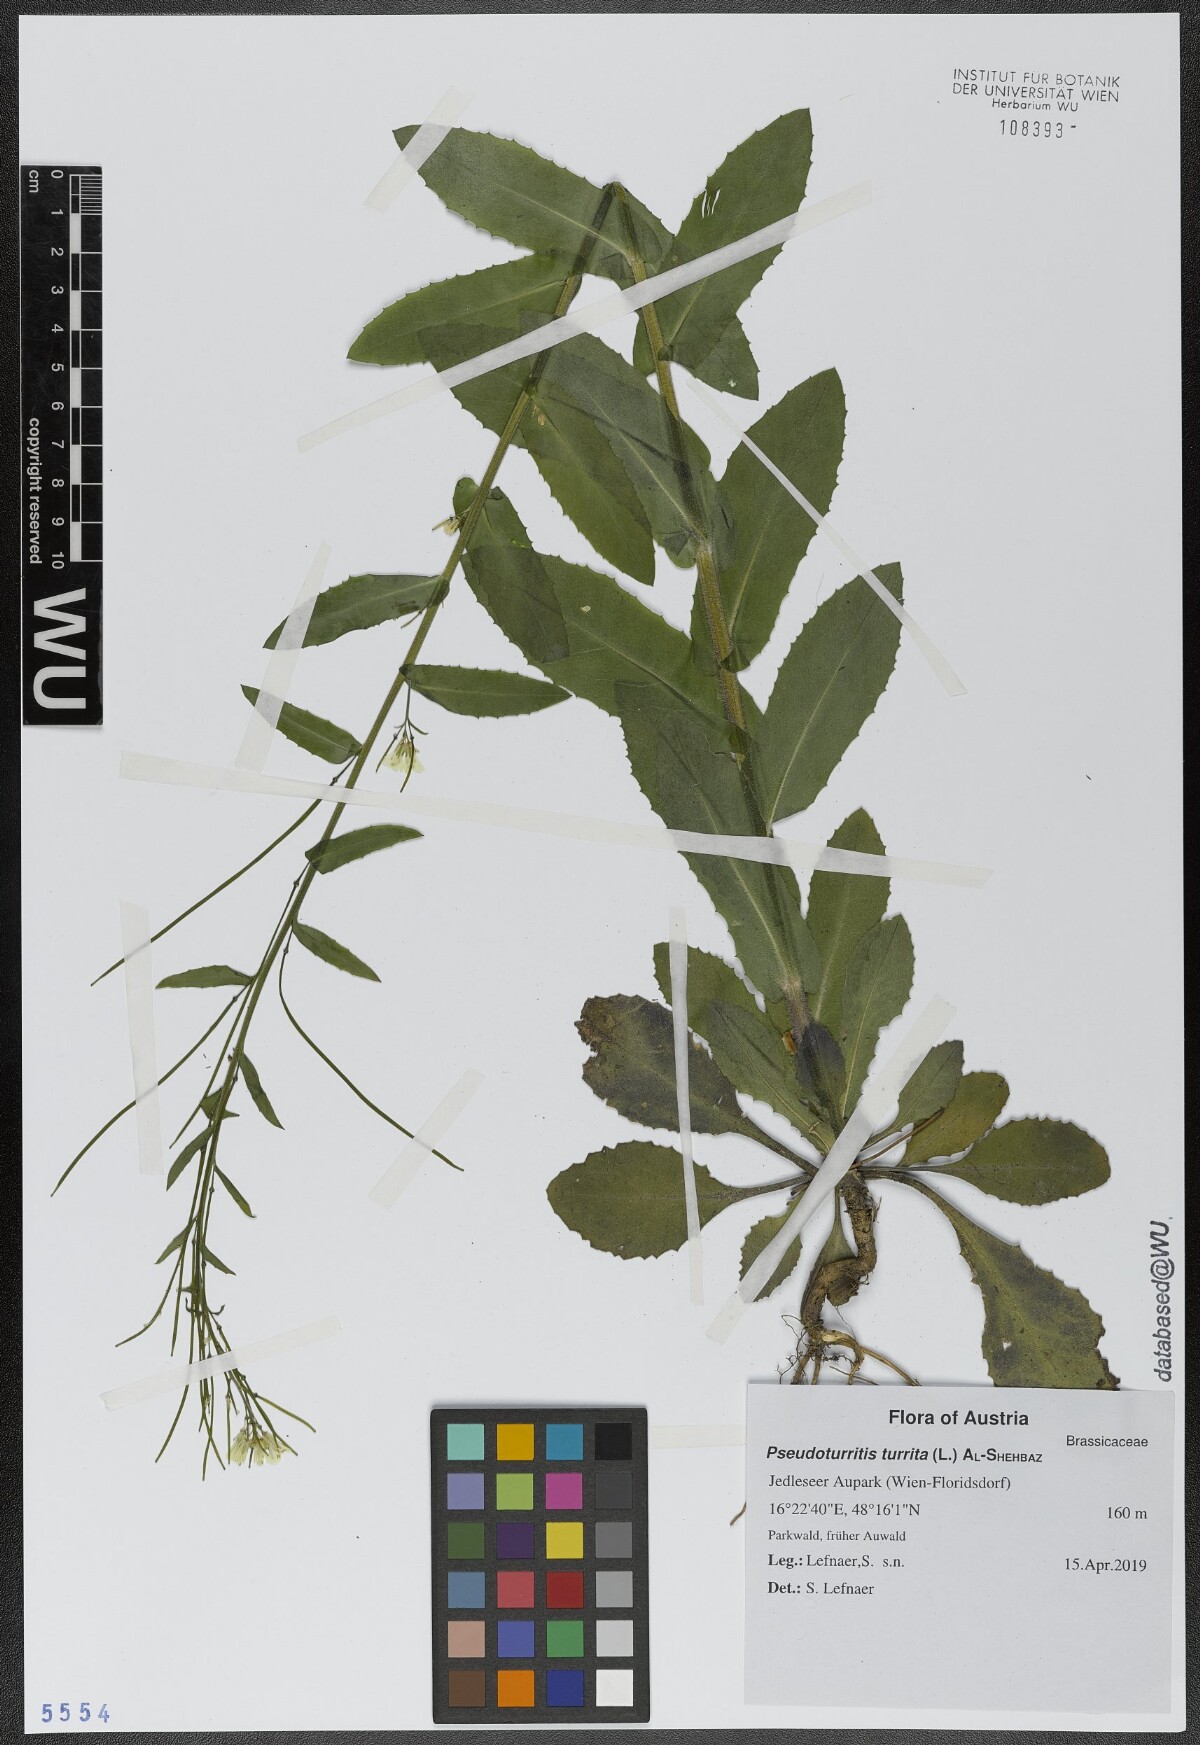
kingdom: Plantae
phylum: Tracheophyta
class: Magnoliopsida
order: Brassicales
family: Brassicaceae
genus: Pseudoturritis
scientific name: Pseudoturritis turrita
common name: Tower cress
